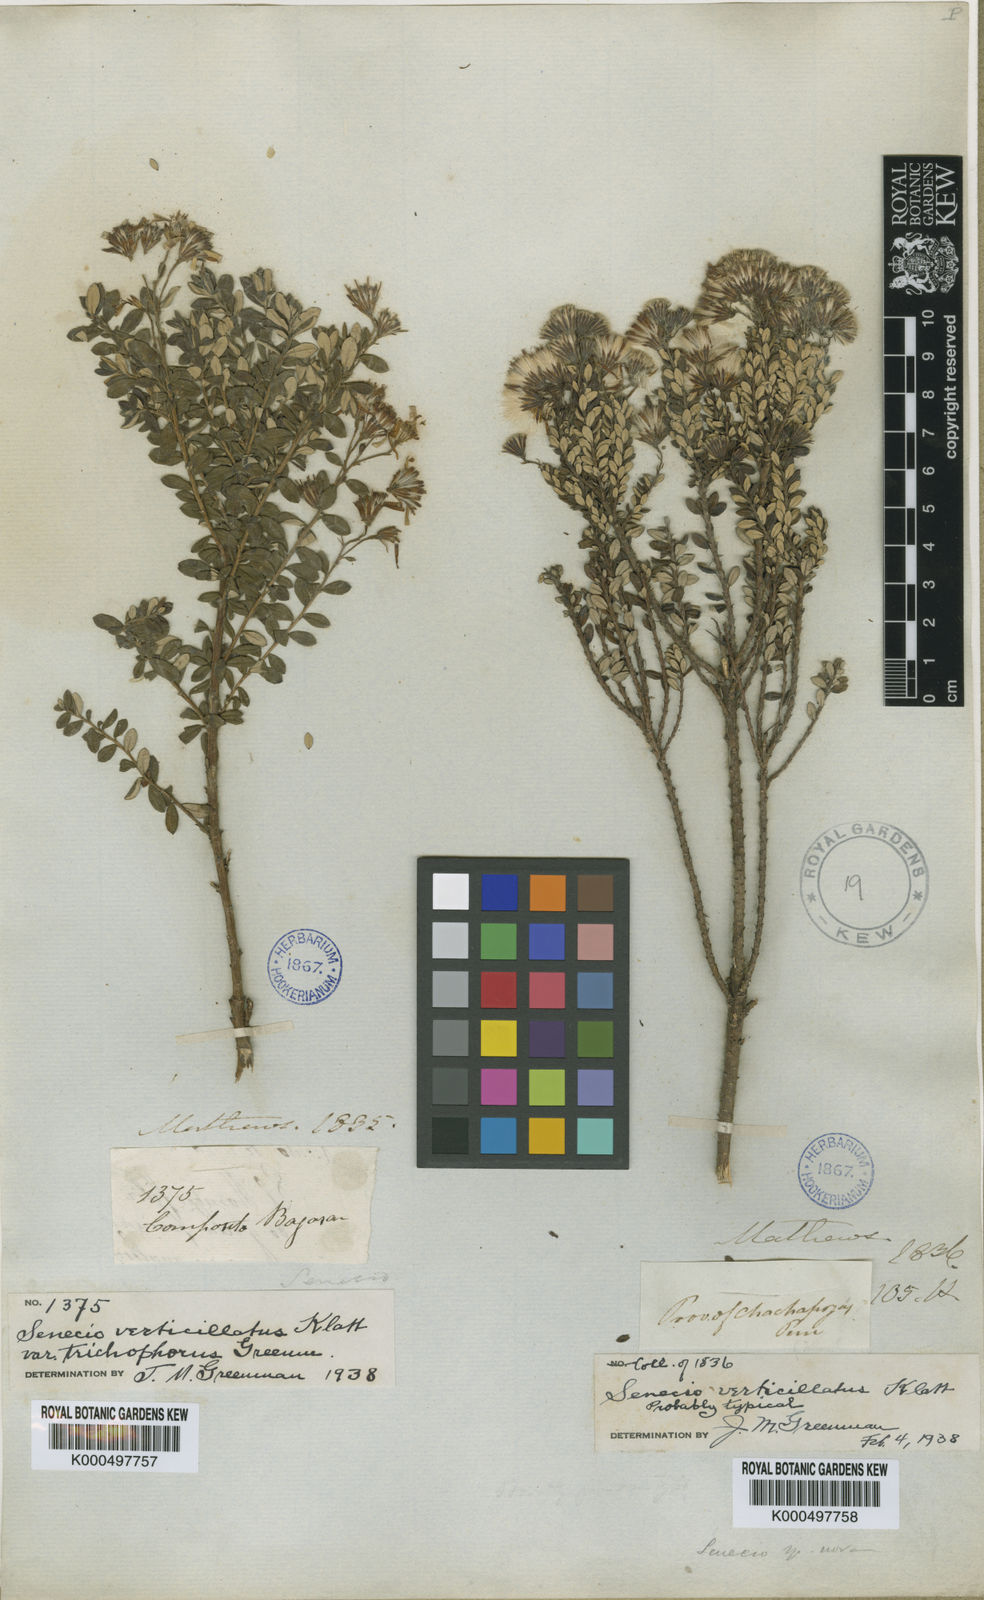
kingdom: Plantae
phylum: Tracheophyta
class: Magnoliopsida
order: Asterales
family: Asteraceae
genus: Monticalia
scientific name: Monticalia verticillata
